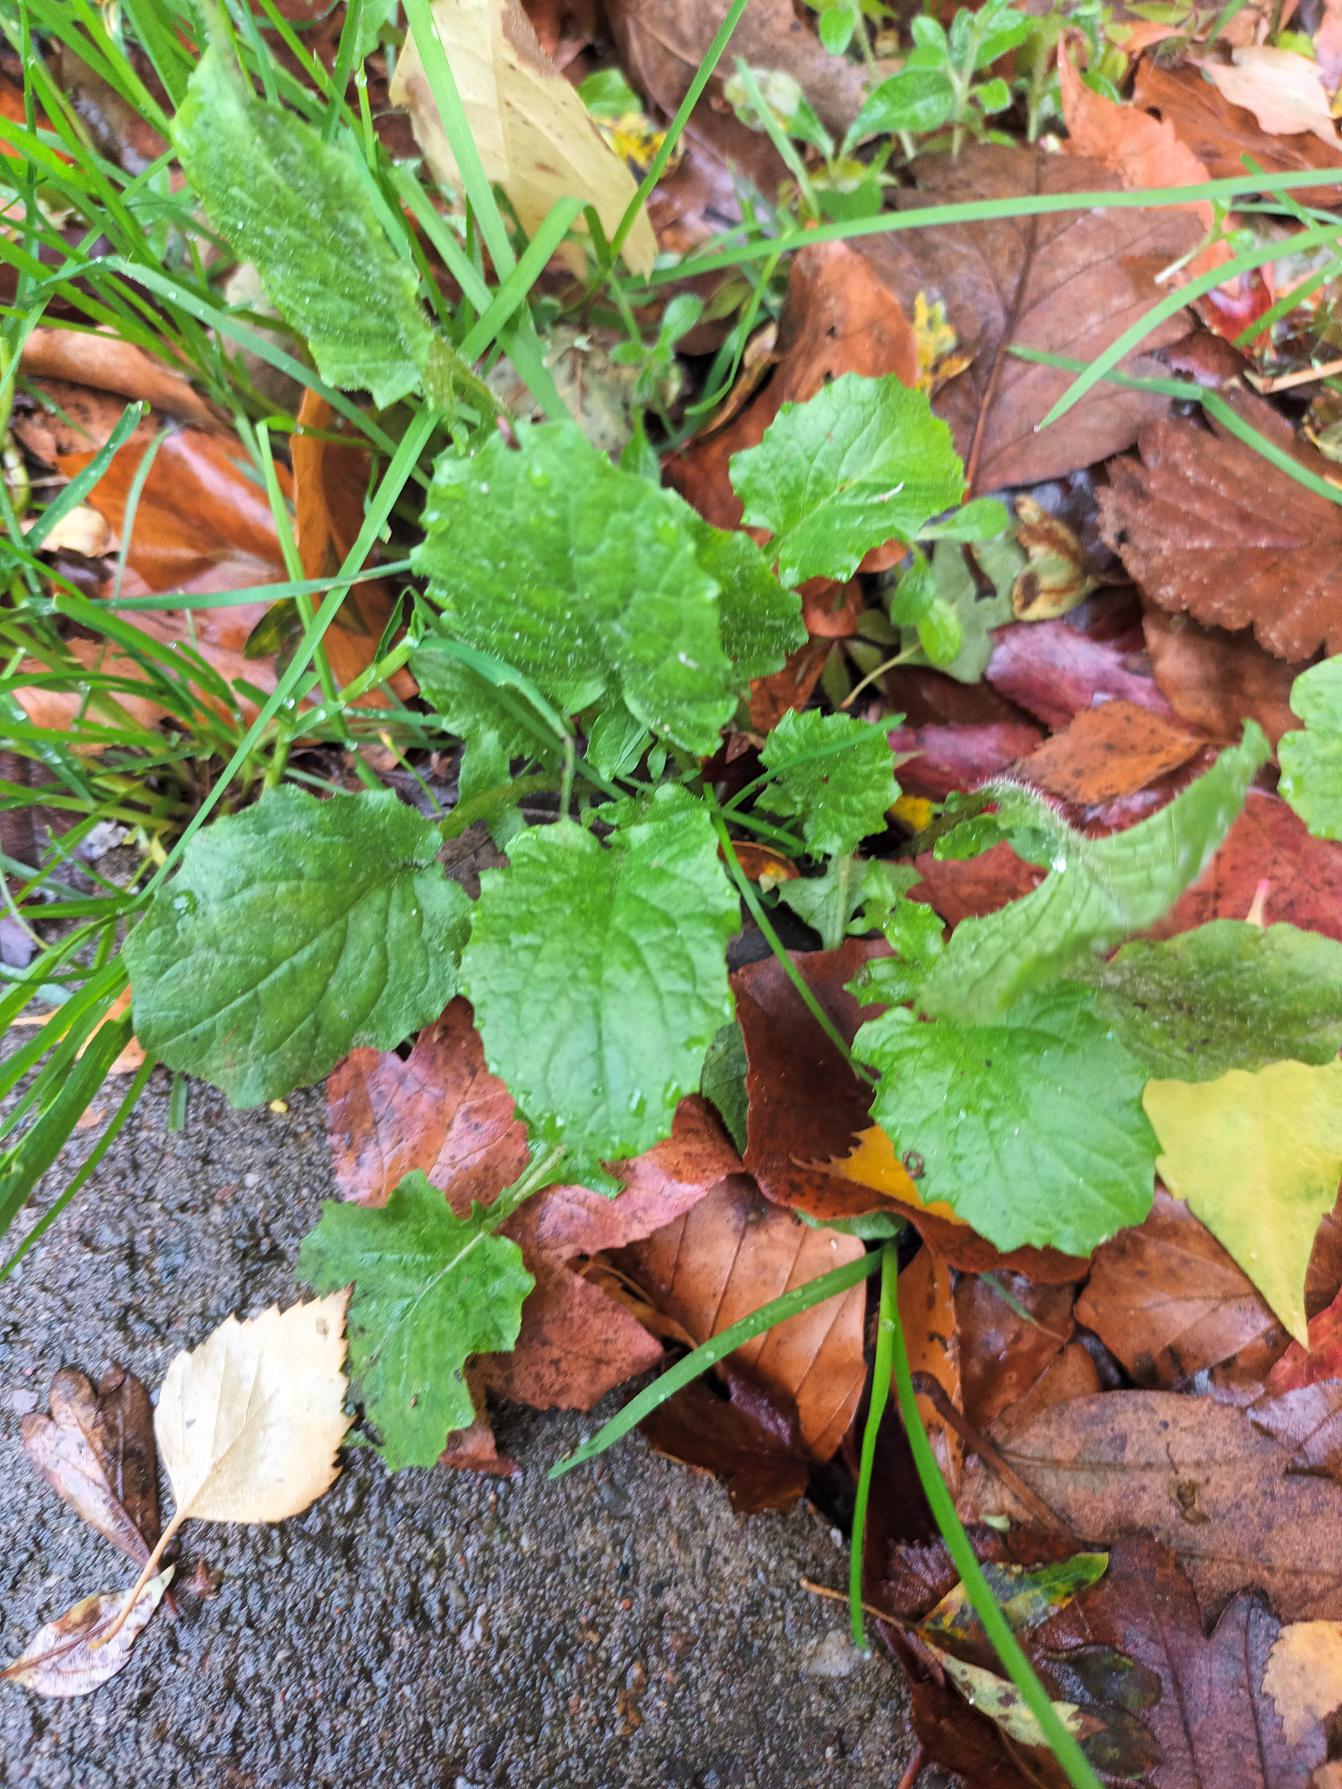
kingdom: Plantae
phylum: Tracheophyta
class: Magnoliopsida
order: Asterales
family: Asteraceae
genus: Lapsana
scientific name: Lapsana communis
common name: Haremad
